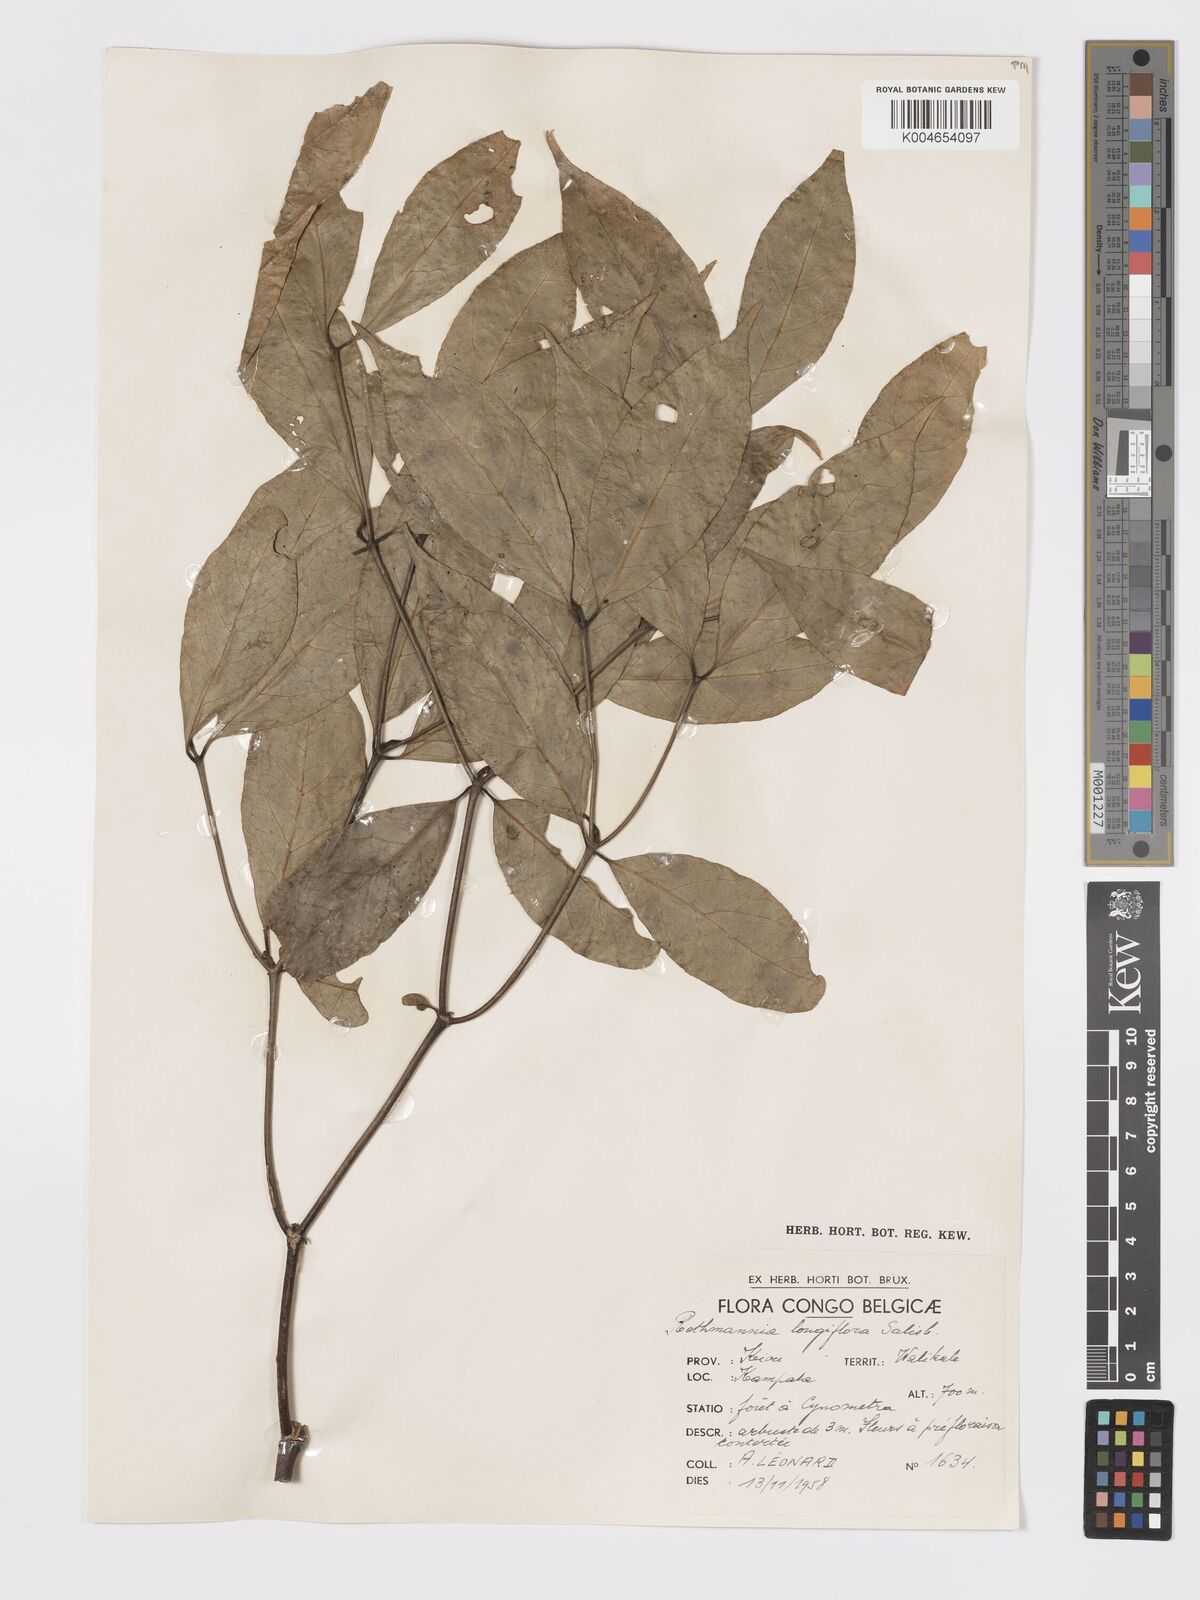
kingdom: Plantae
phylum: Tracheophyta
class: Magnoliopsida
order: Gentianales
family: Rubiaceae
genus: Rothmannia
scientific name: Rothmannia longiflora
